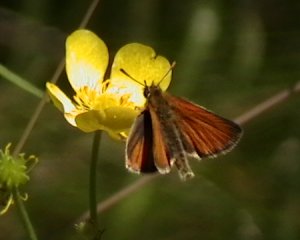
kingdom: Animalia
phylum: Arthropoda
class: Insecta
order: Lepidoptera
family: Hesperiidae
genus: Thymelicus
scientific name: Thymelicus lineola
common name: European Skipper
